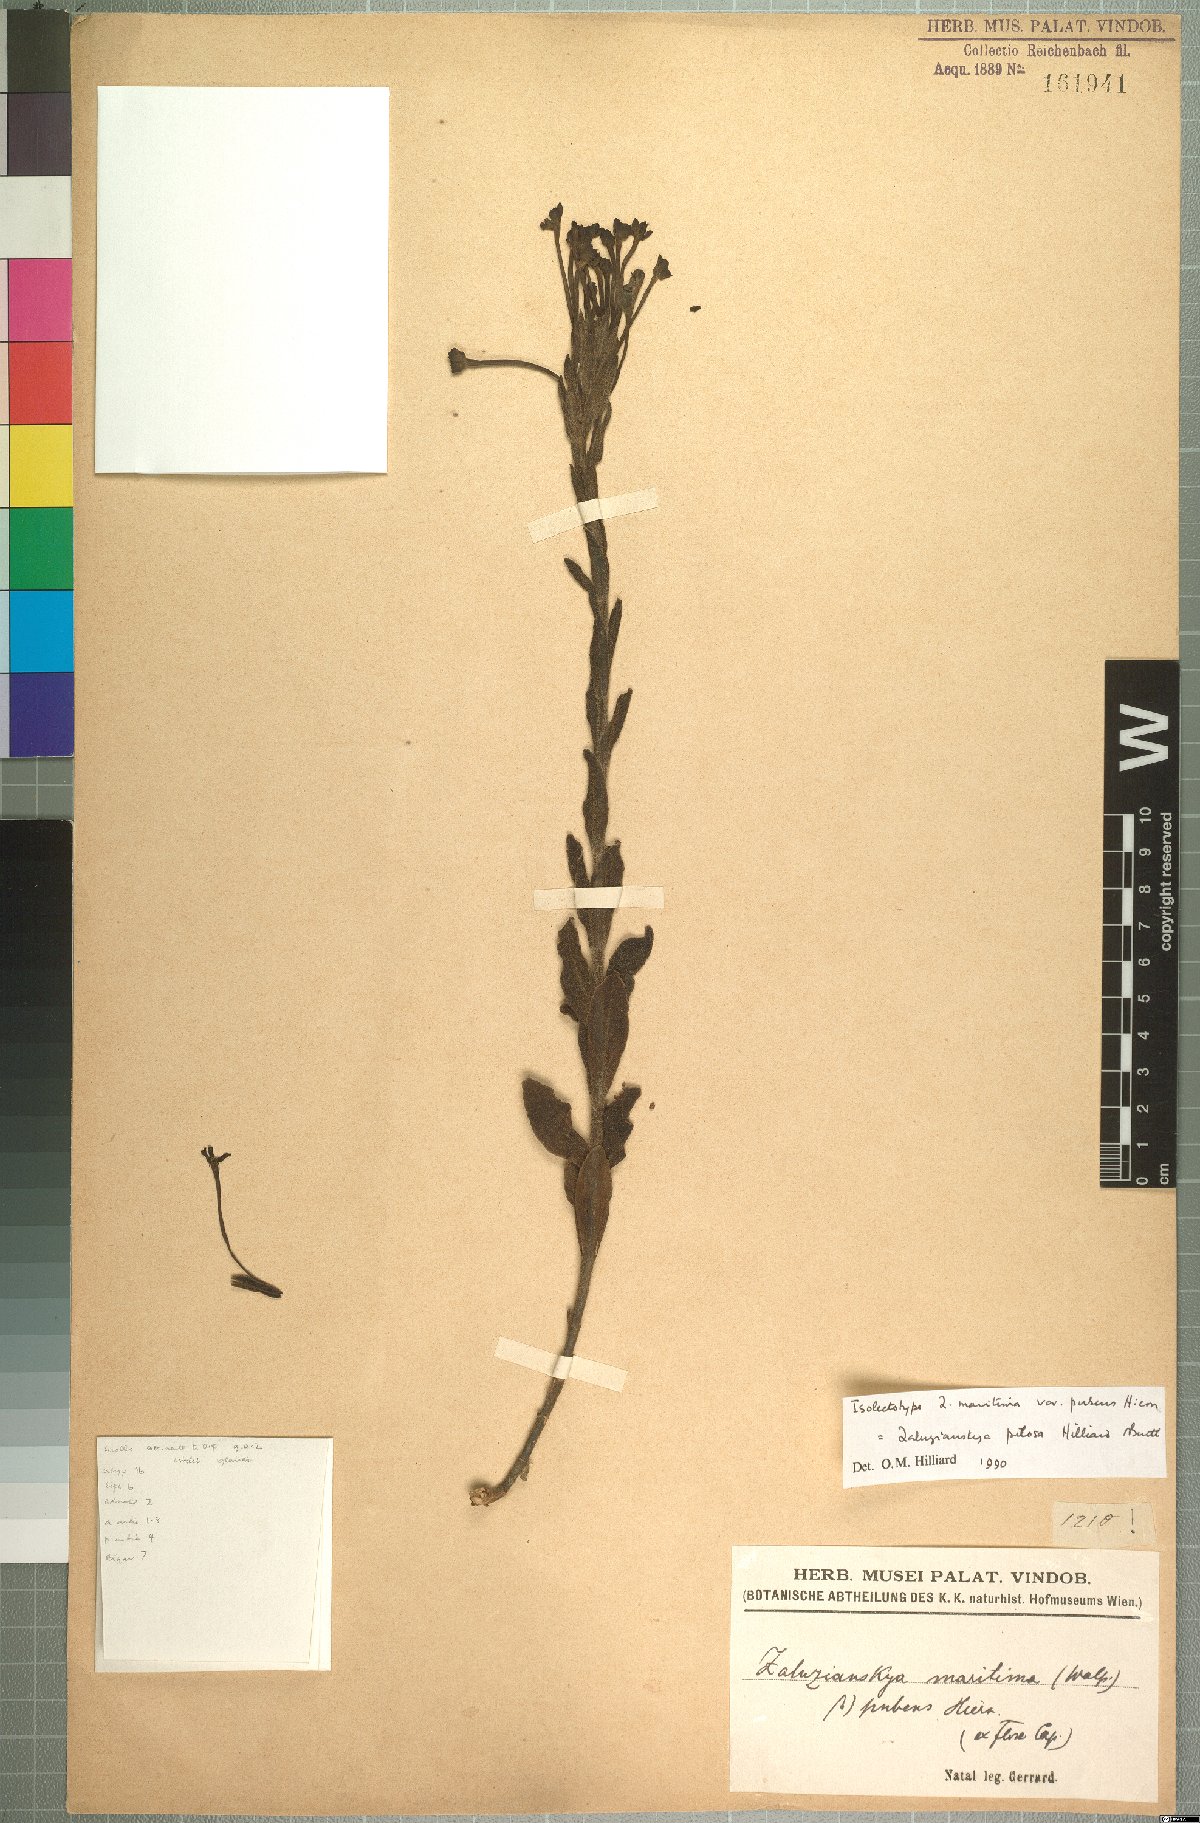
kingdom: Plantae
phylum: Tracheophyta
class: Magnoliopsida
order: Lamiales
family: Scrophulariaceae
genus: Zaluzianskya
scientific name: Zaluzianskya pilosa
